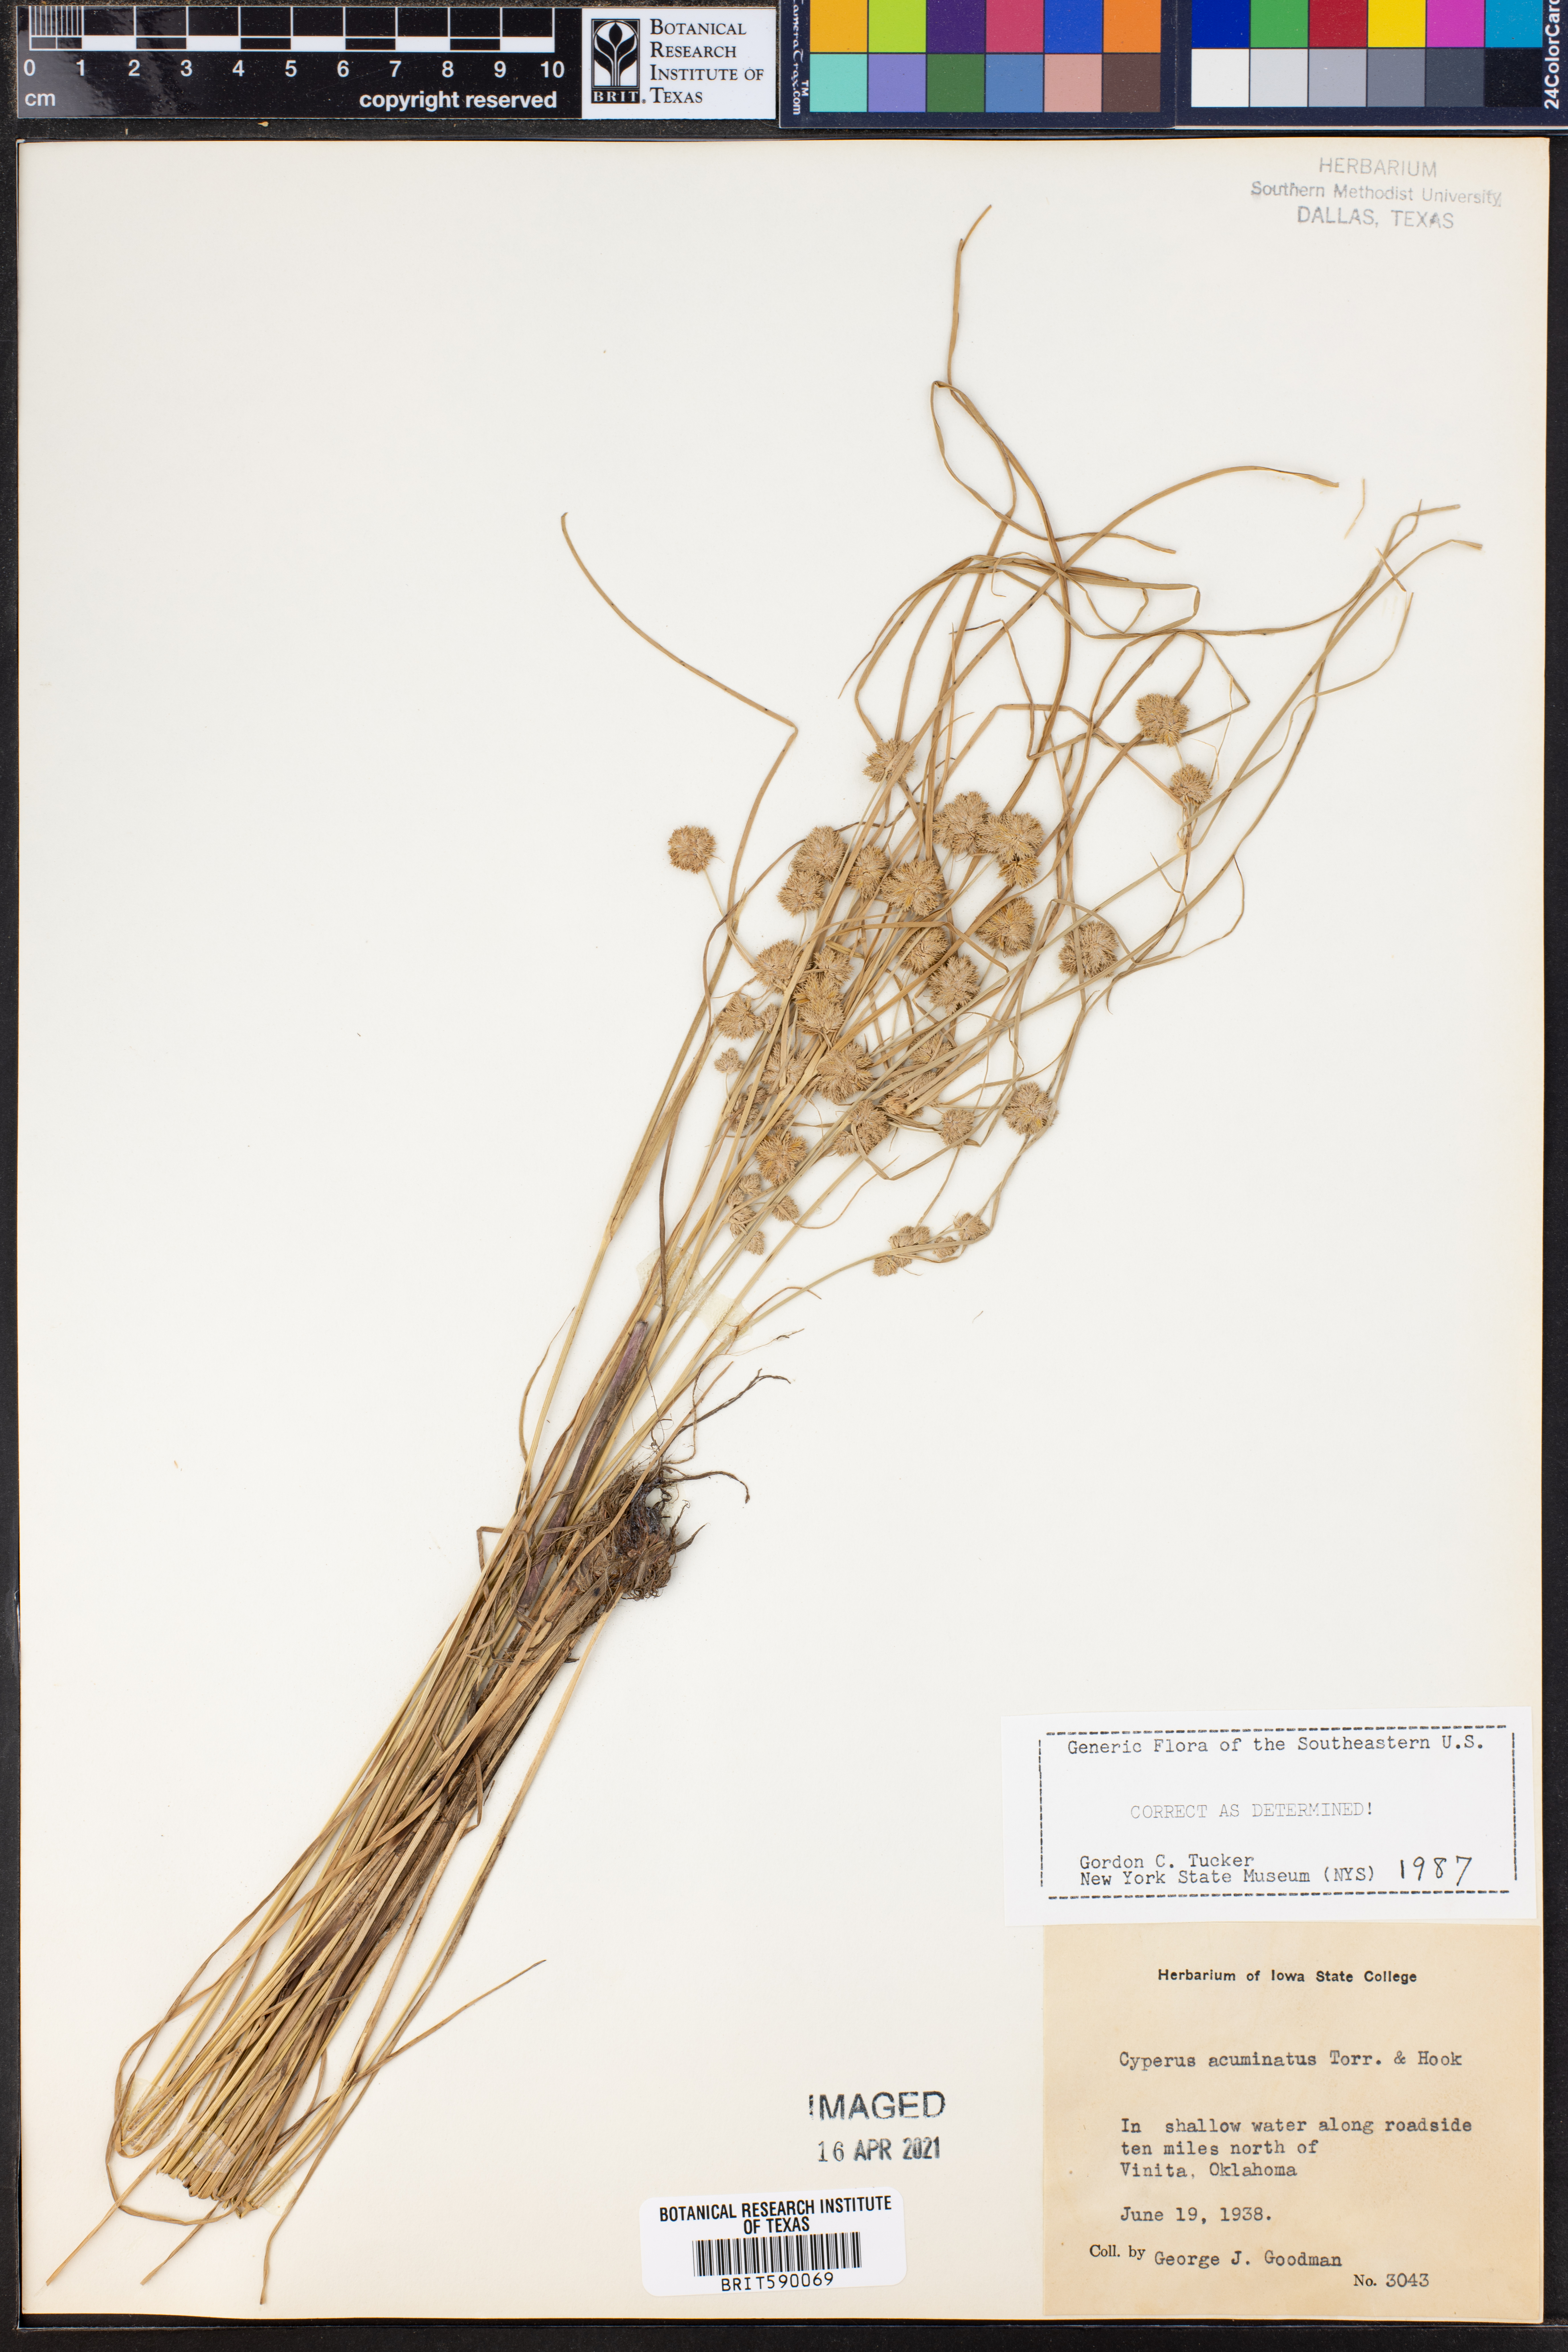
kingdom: Plantae
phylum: Tracheophyta
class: Liliopsida
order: Poales
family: Cyperaceae
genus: Cyperus
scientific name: Cyperus acuminatus
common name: Short-pointed cyperus
